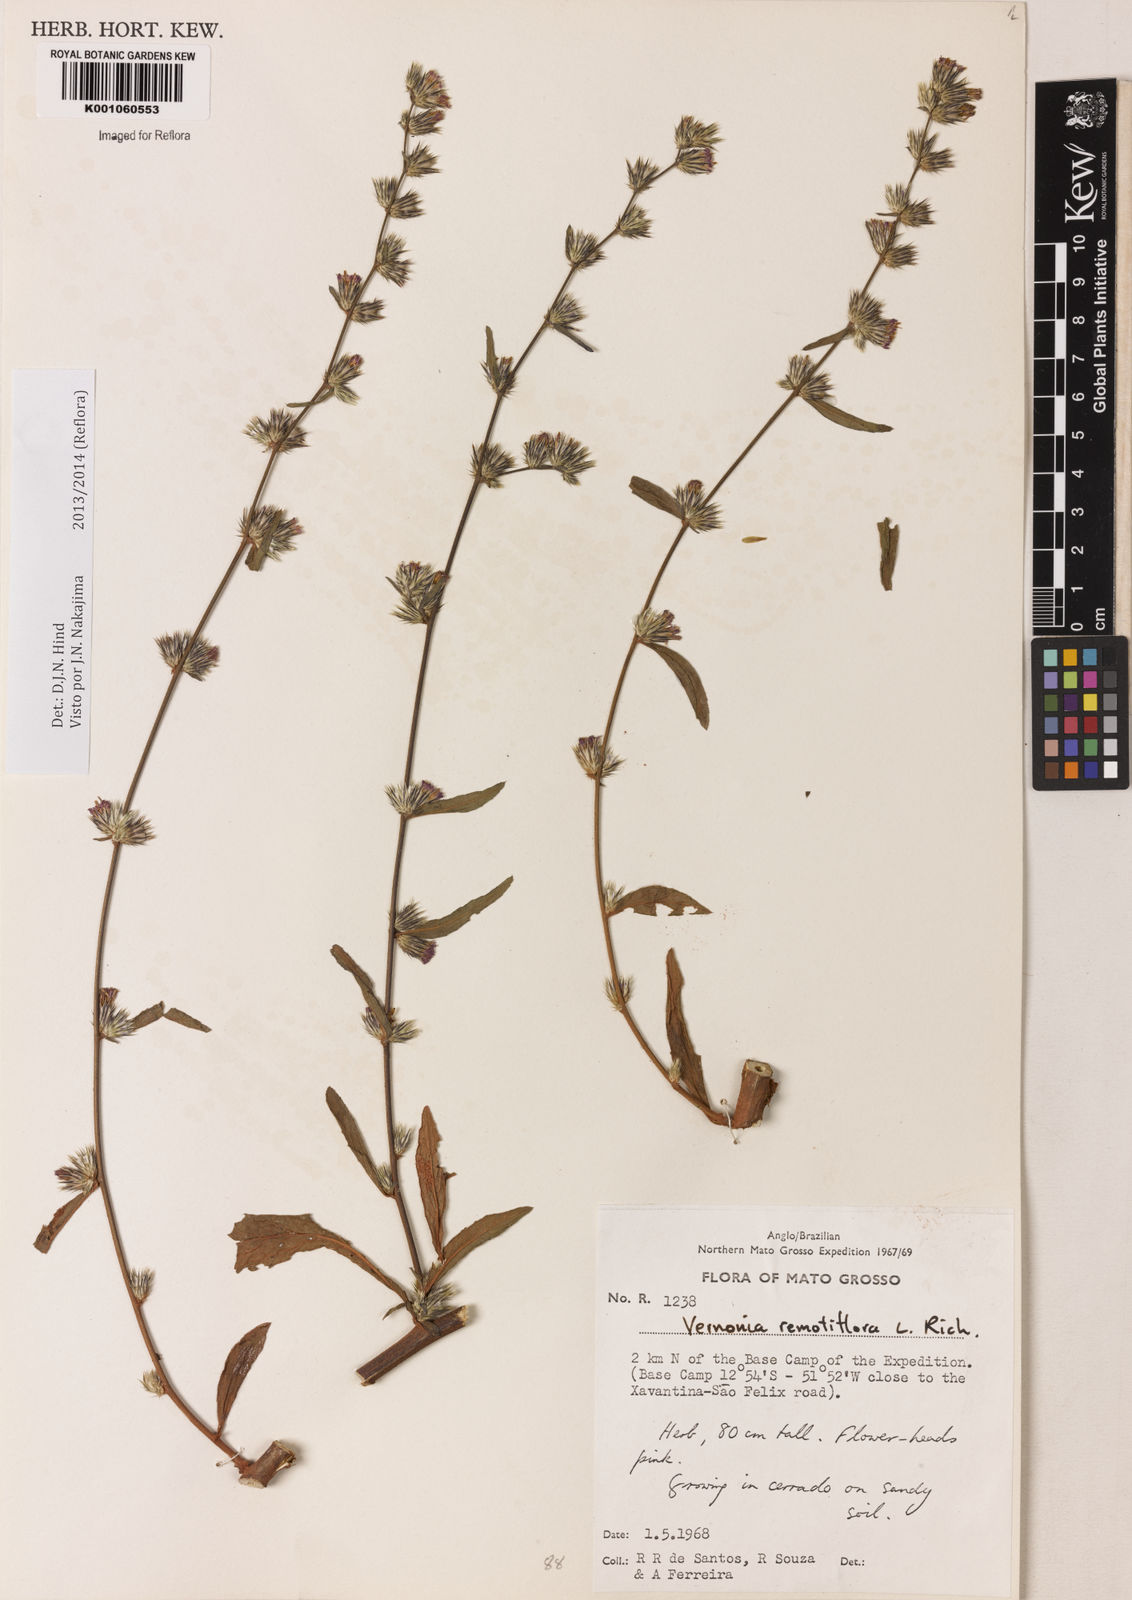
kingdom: Plantae
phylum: Tracheophyta
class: Magnoliopsida
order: Asterales
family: Asteraceae
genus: Lepidaploa
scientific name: Lepidaploa remotiflora
